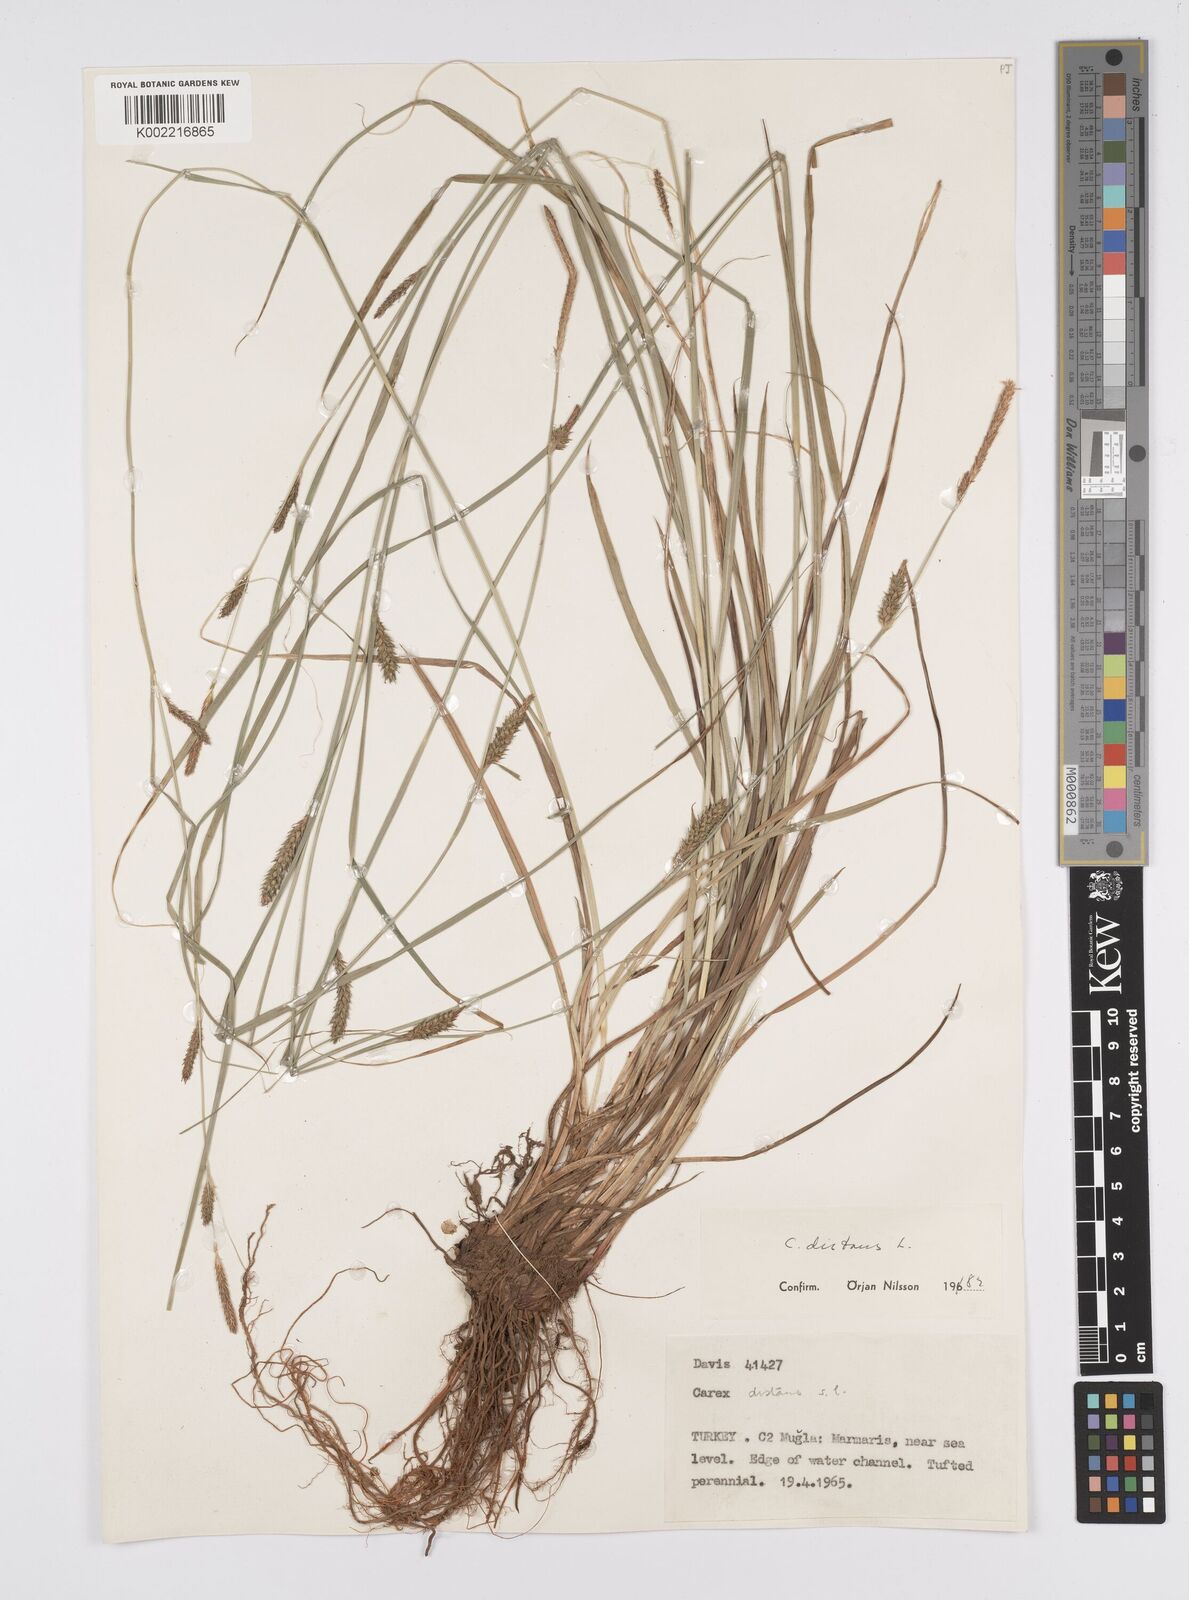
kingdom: Plantae
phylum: Tracheophyta
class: Liliopsida
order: Poales
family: Cyperaceae
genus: Carex
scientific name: Carex distans
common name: Distant sedge
